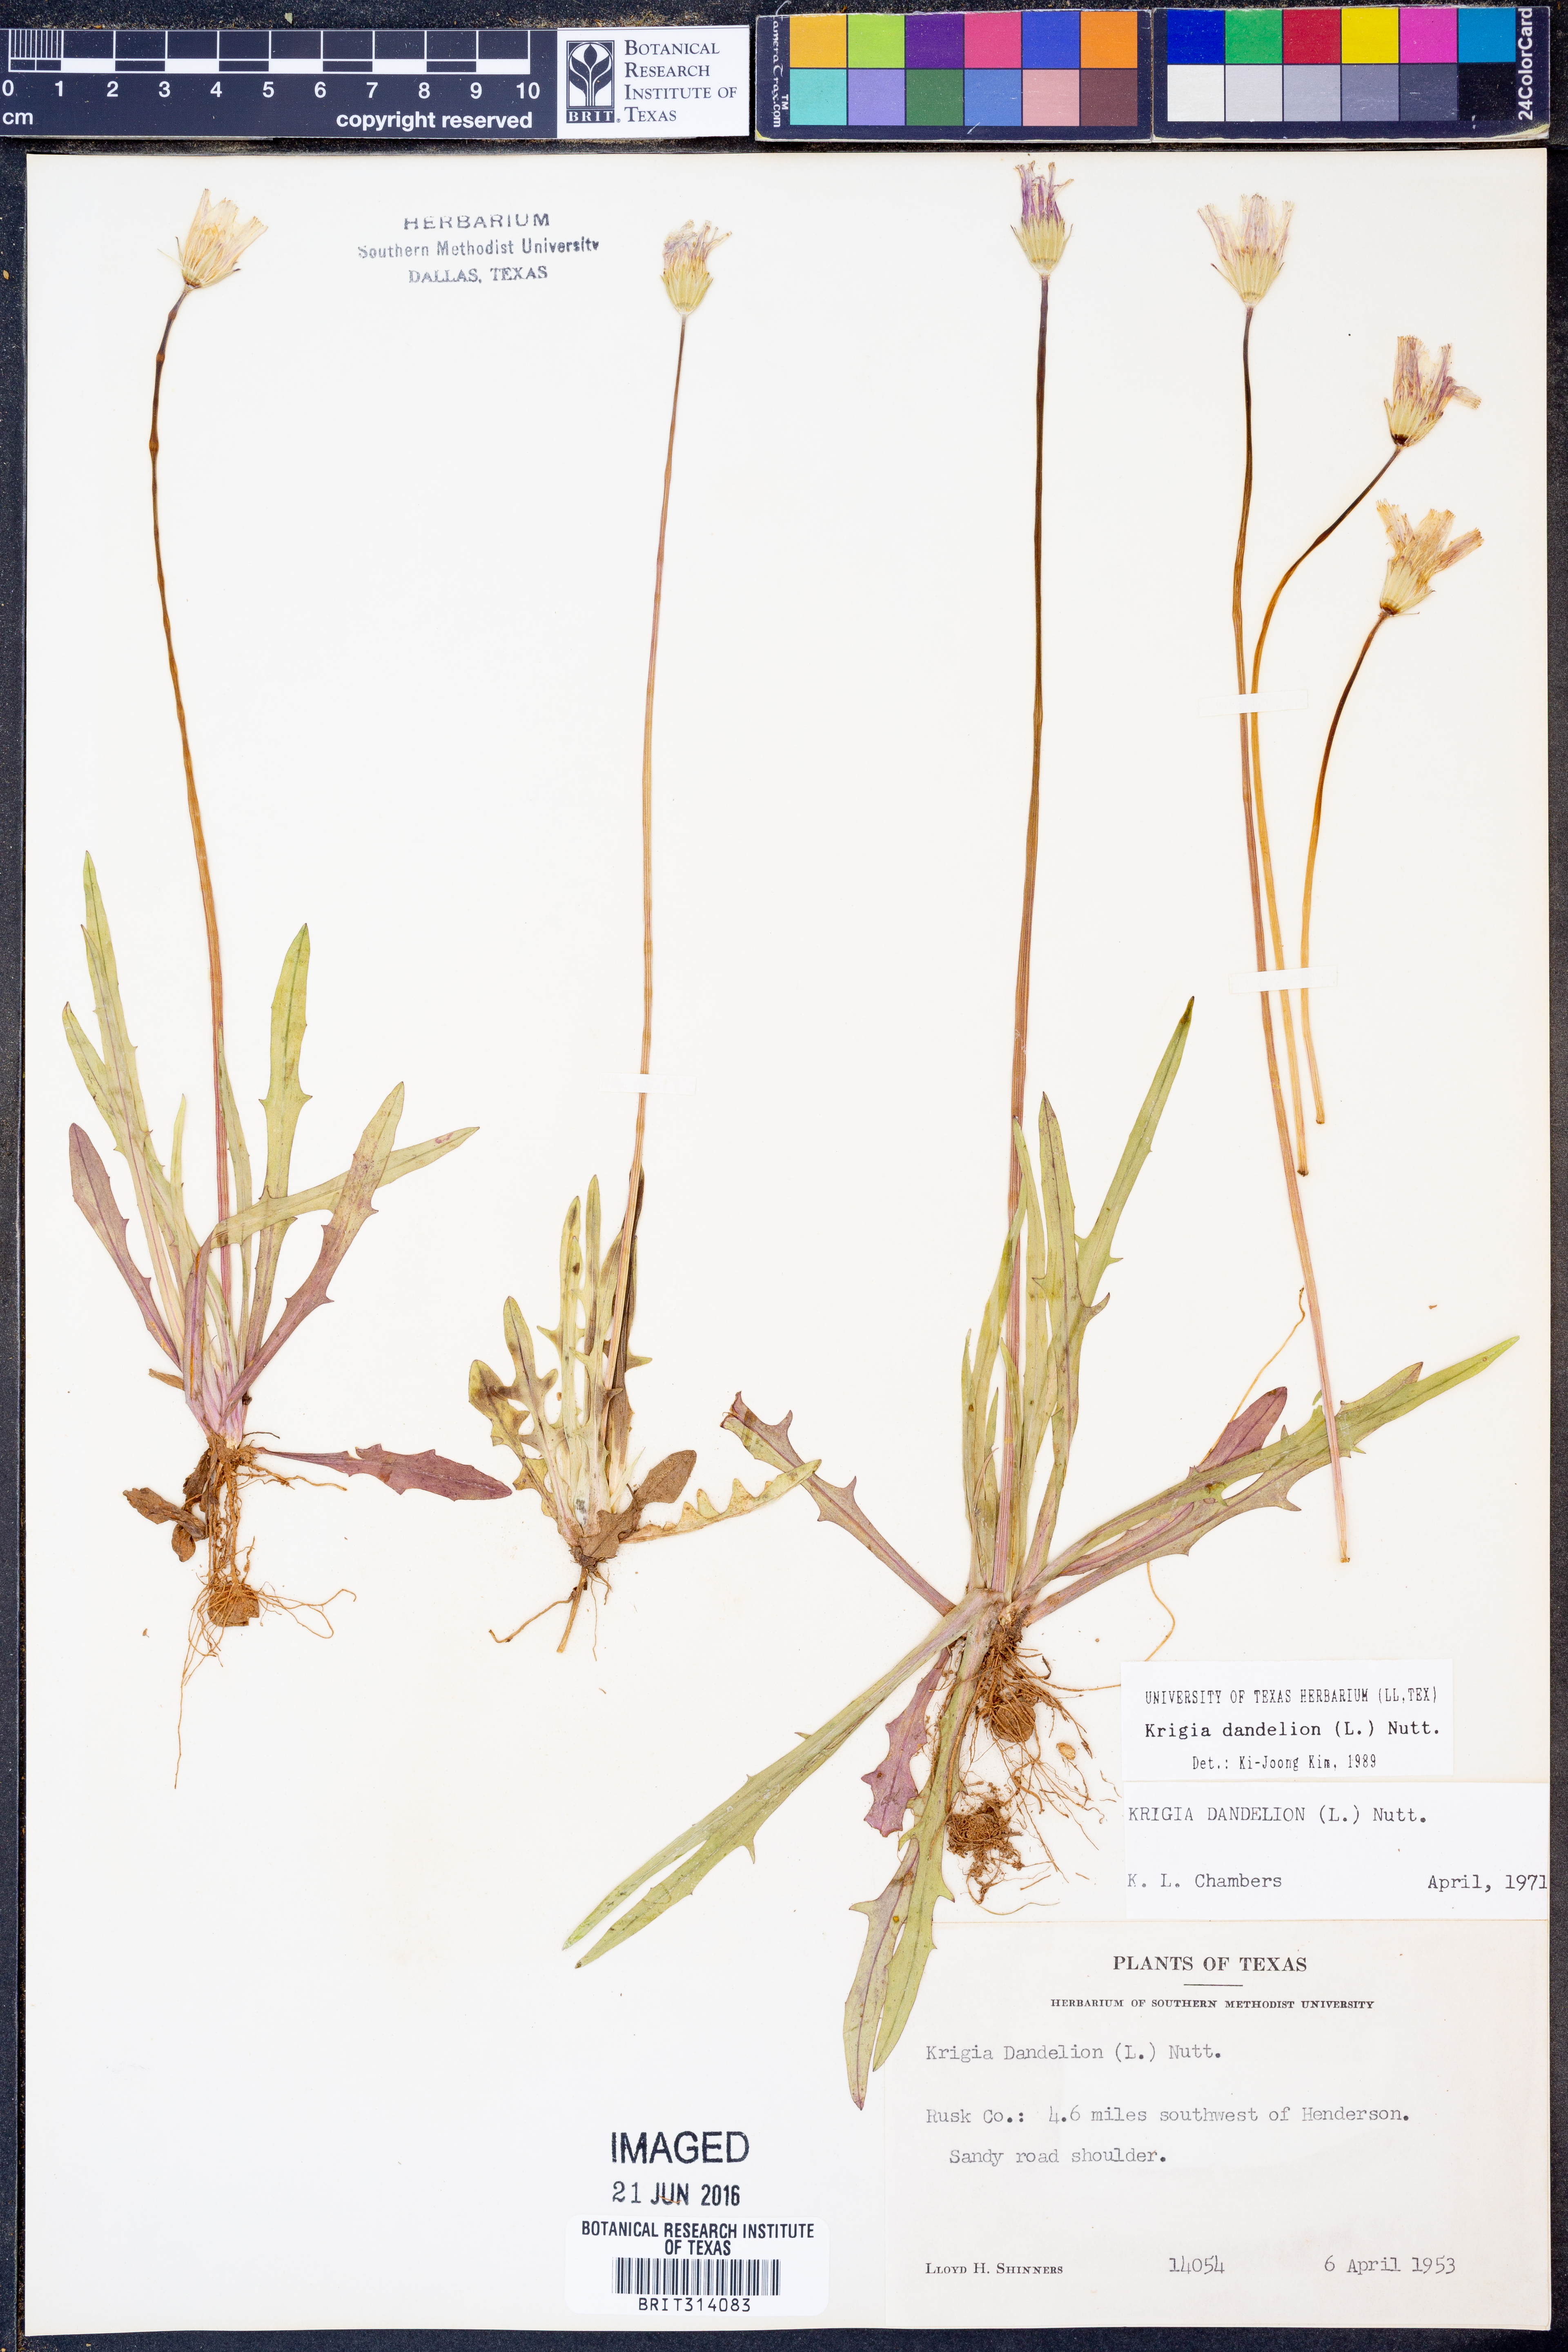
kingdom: Plantae
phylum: Tracheophyta
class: Magnoliopsida
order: Asterales
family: Asteraceae
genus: Krigia
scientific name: Krigia dandelion
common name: Colonial dwarf-dandelion
